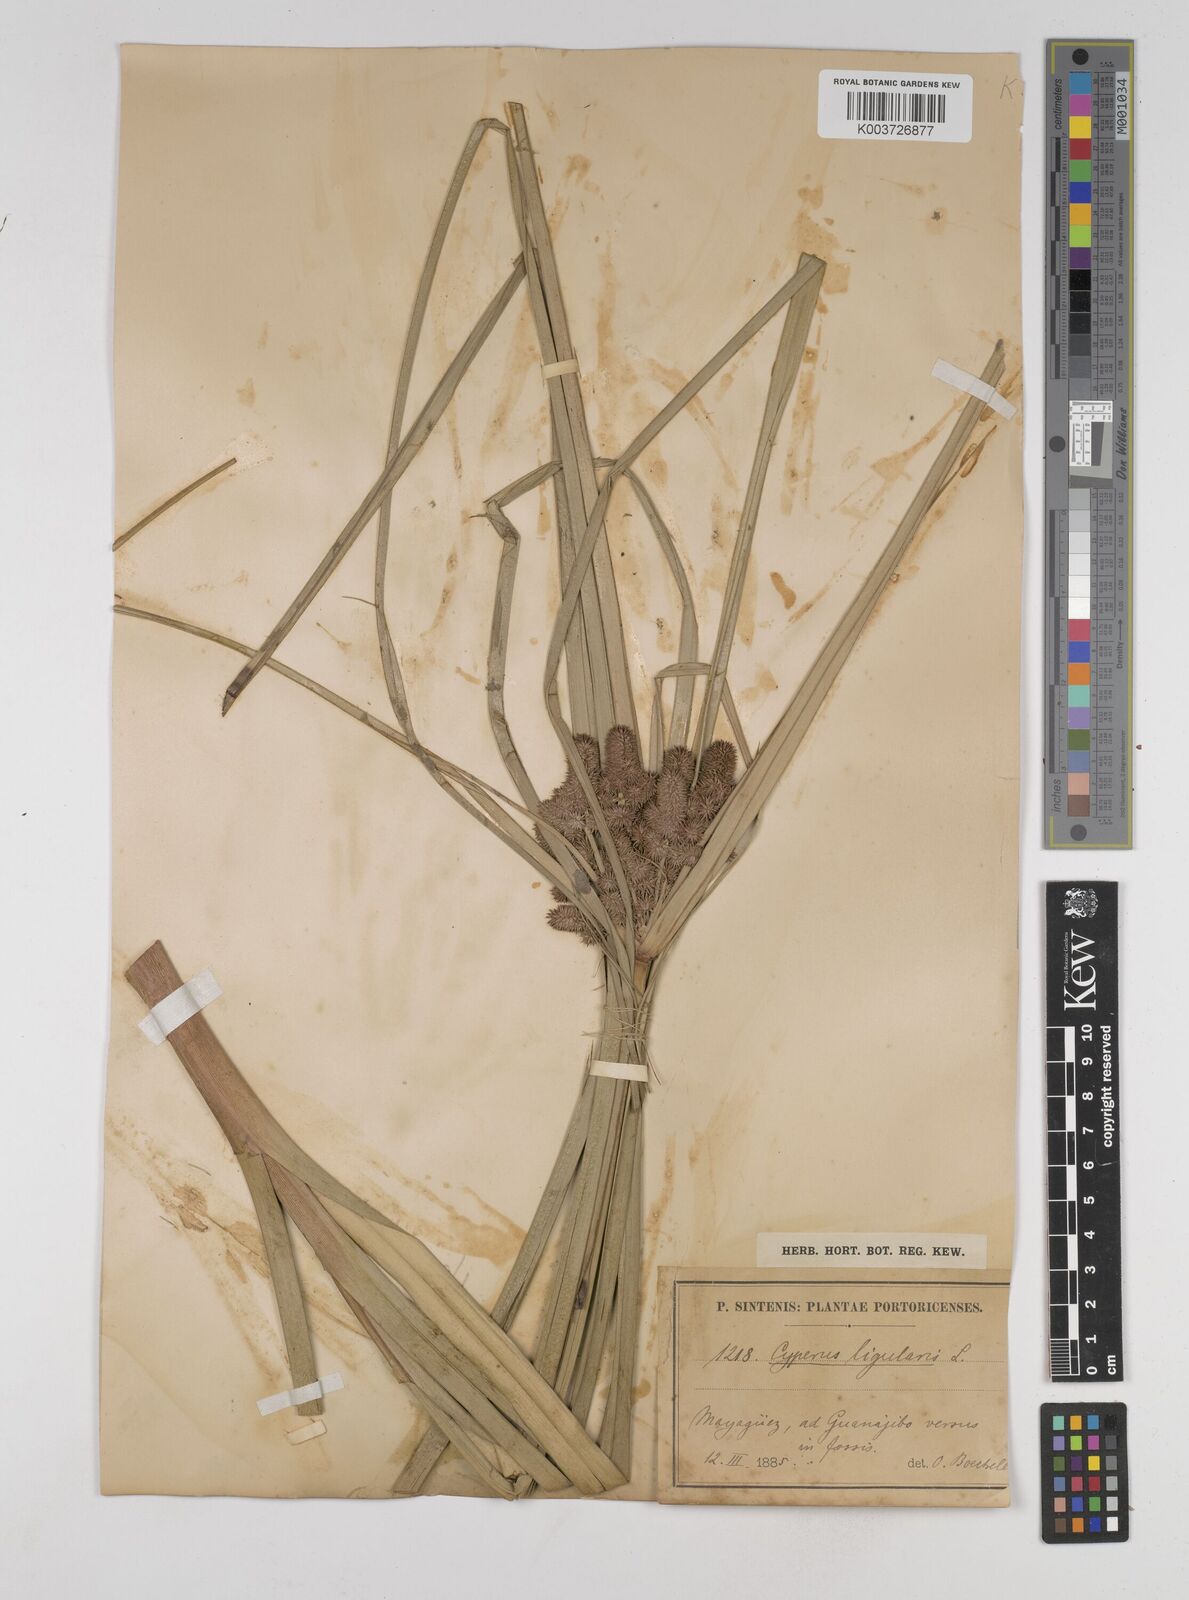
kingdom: Plantae
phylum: Tracheophyta
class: Liliopsida
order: Poales
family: Cyperaceae
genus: Cyperus
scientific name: Cyperus ligularis
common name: Swamp flat sedge
